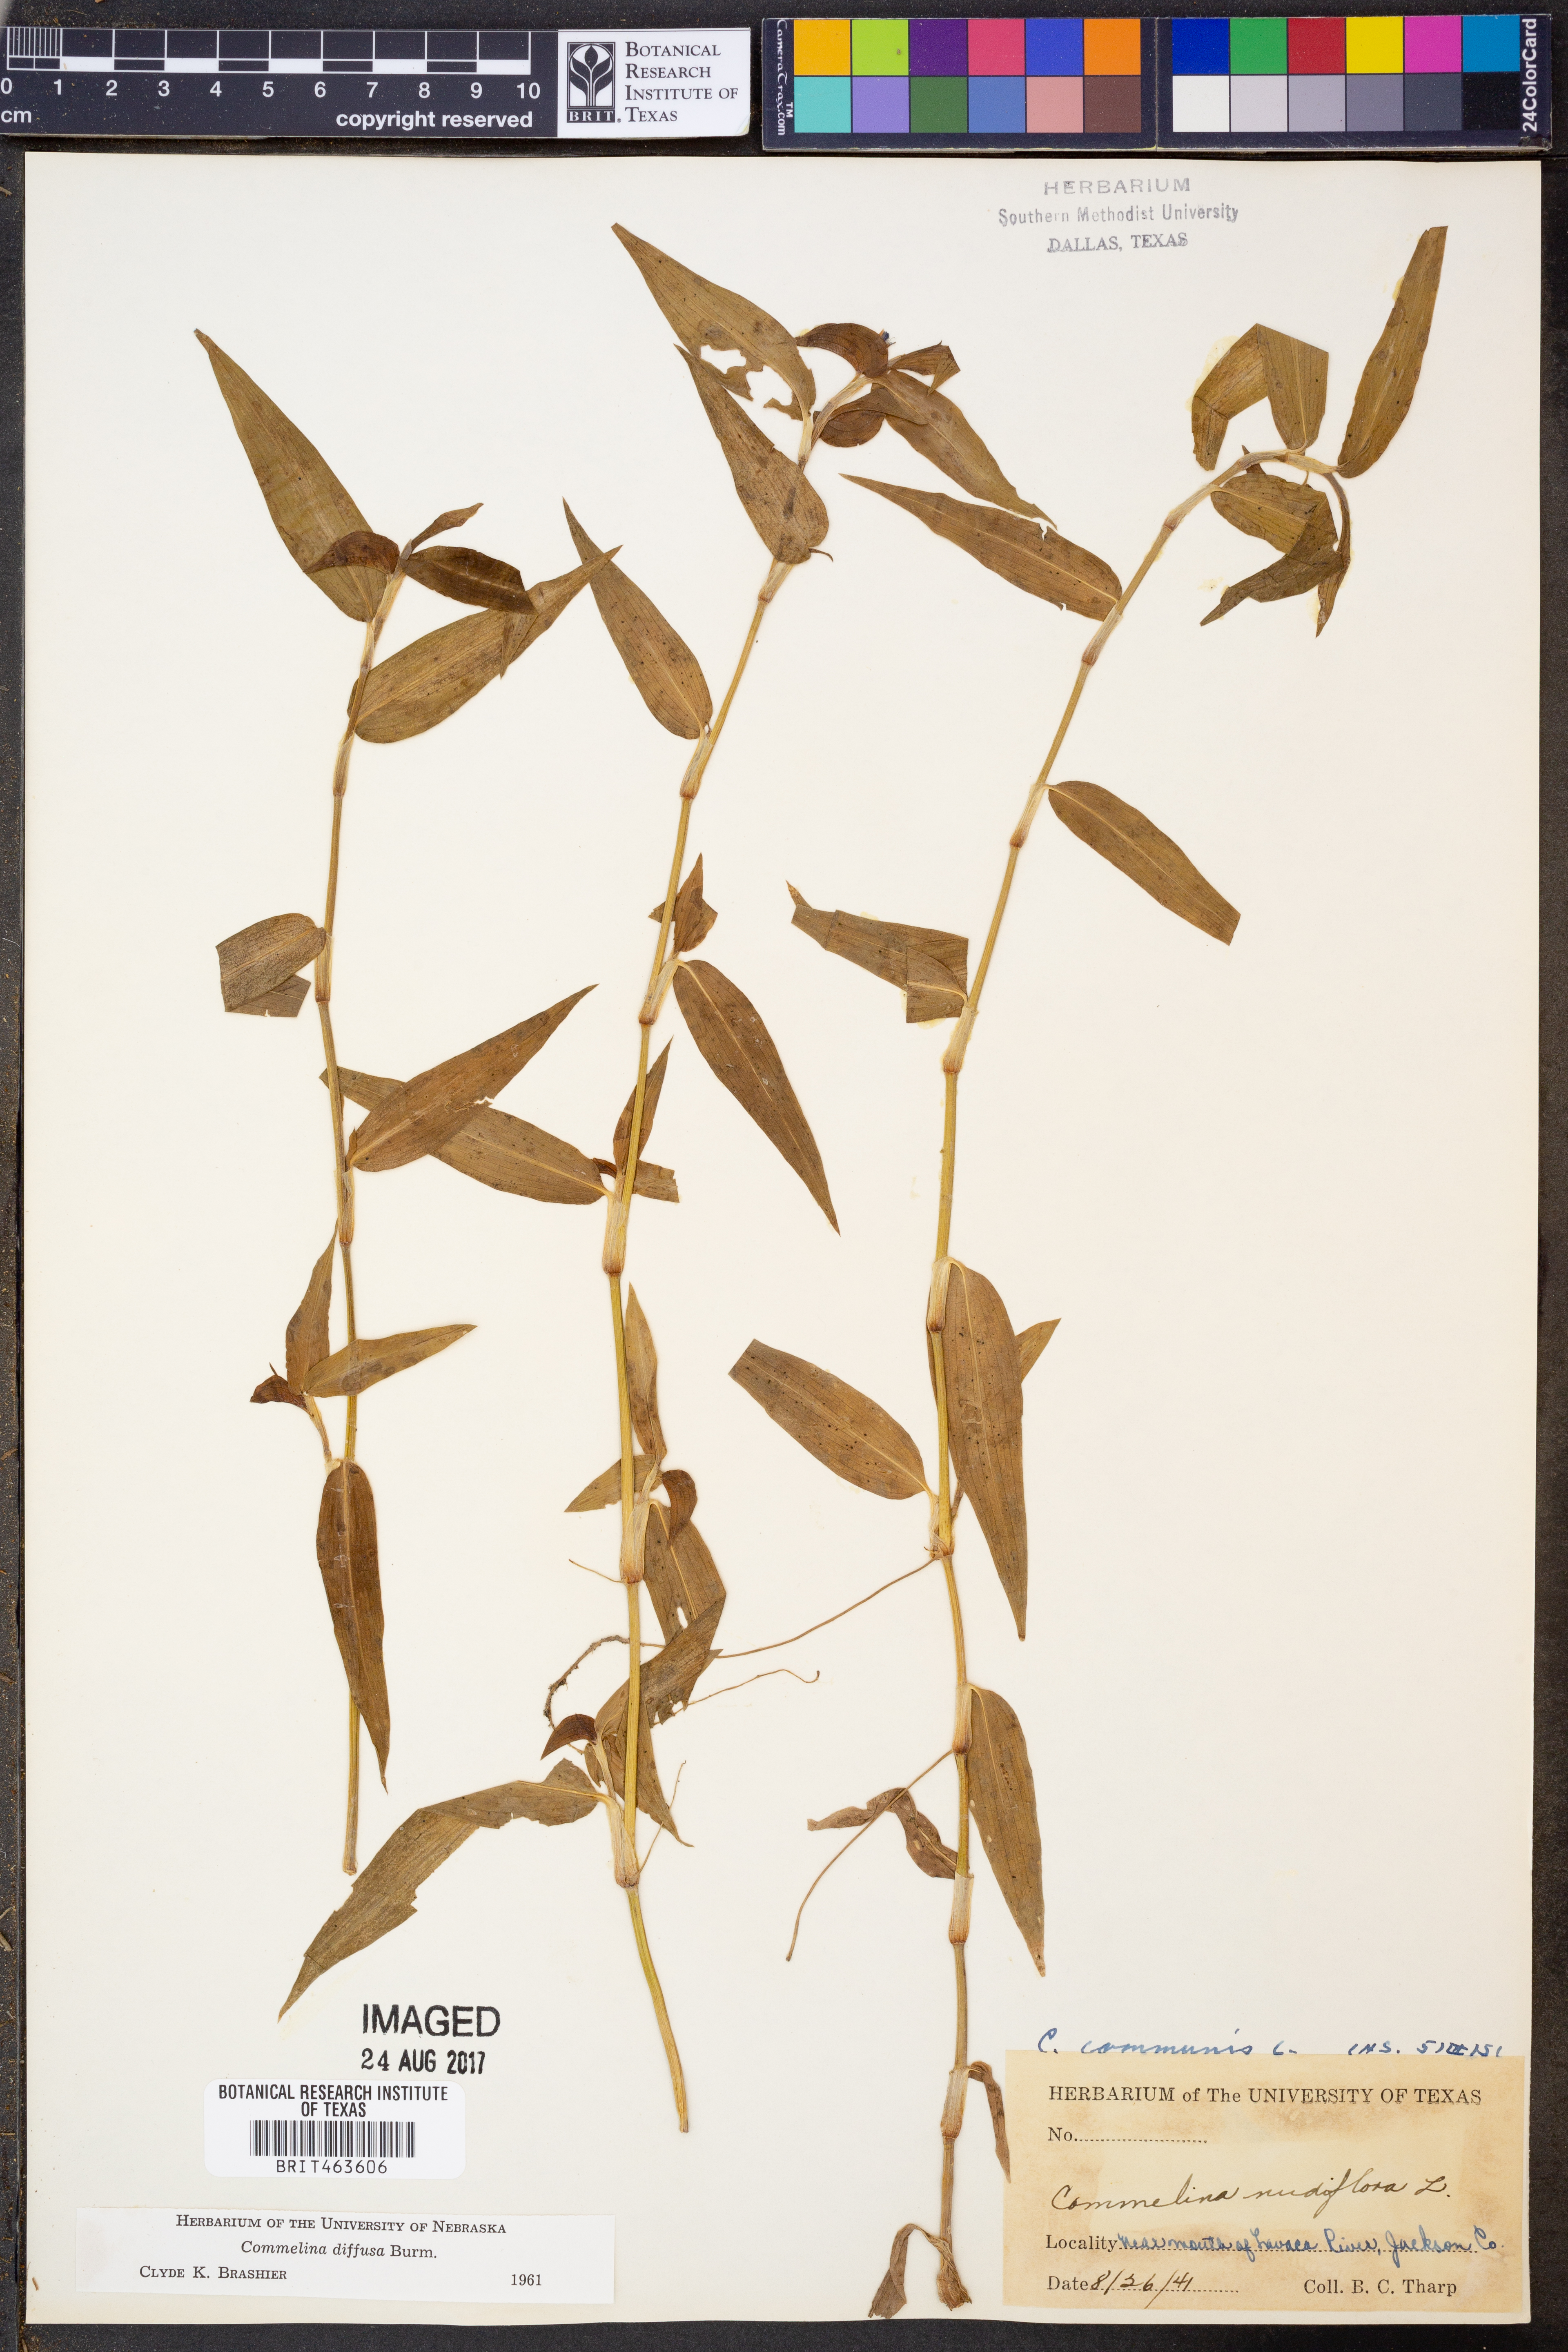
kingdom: Plantae
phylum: Tracheophyta
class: Liliopsida
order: Commelinales
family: Commelinaceae
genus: Commelina
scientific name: Commelina diffusa
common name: Climbing dayflower
